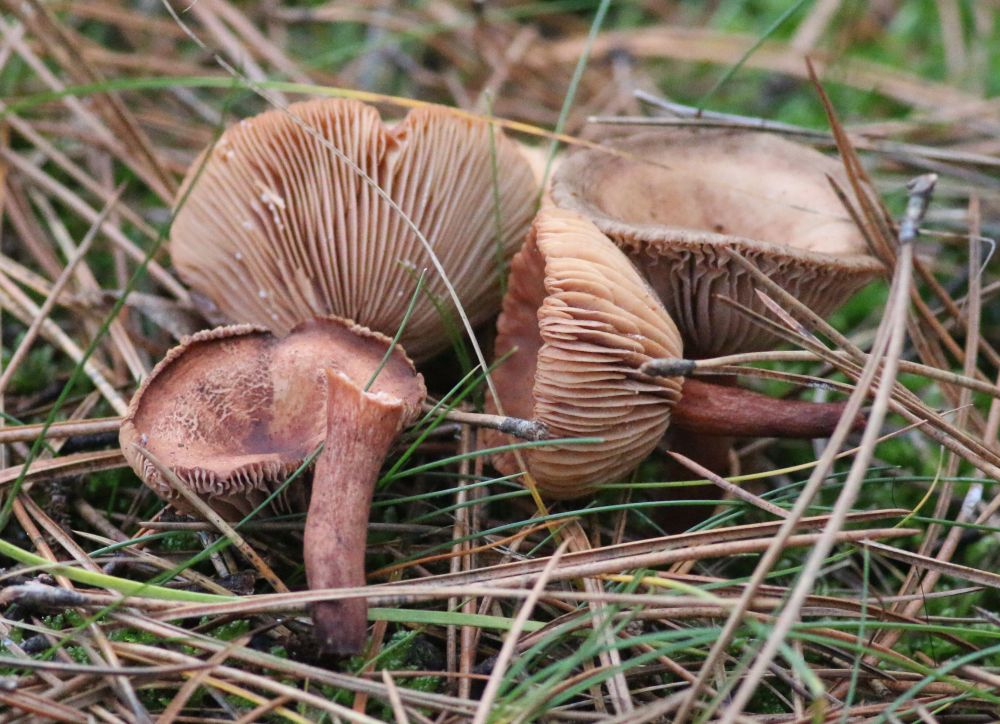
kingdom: Fungi
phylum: Basidiomycota
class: Agaricomycetes
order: Russulales
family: Russulaceae
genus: Lactarius
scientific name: Lactarius
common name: mælkehat
